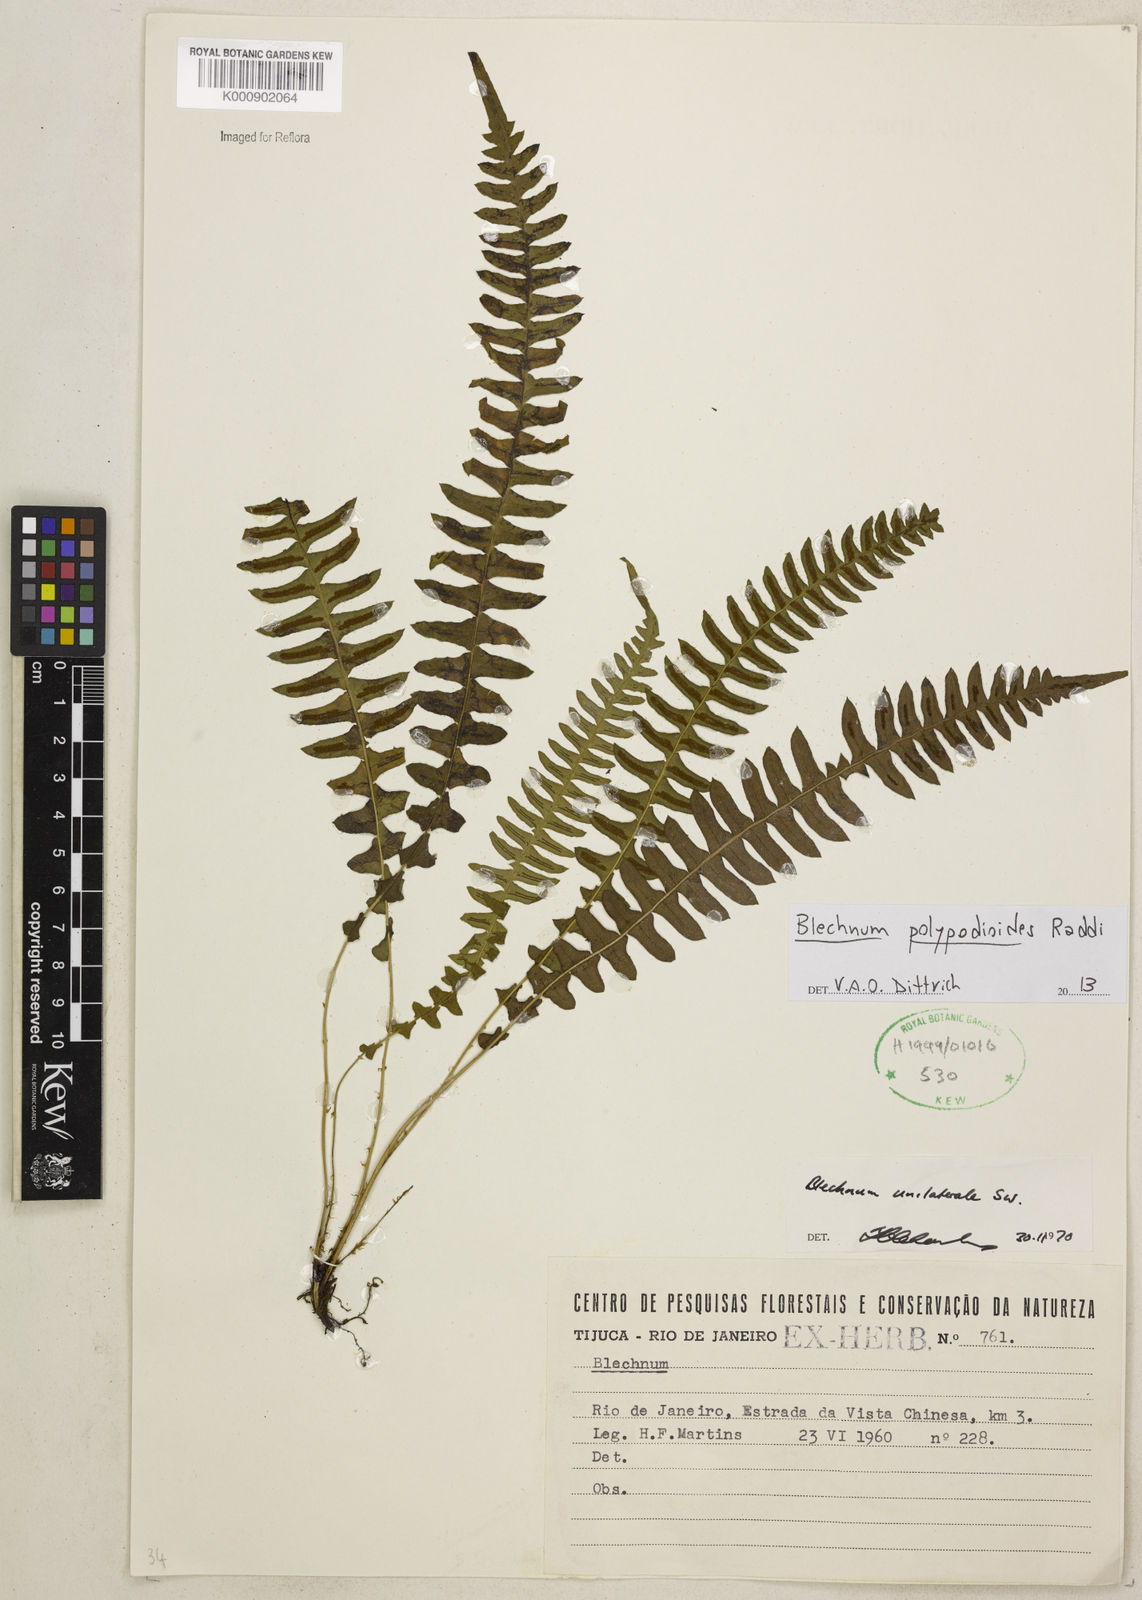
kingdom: Plantae
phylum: Tracheophyta
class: Polypodiopsida
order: Polypodiales
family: Blechnaceae
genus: Blechnum
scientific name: Blechnum polypodioides
